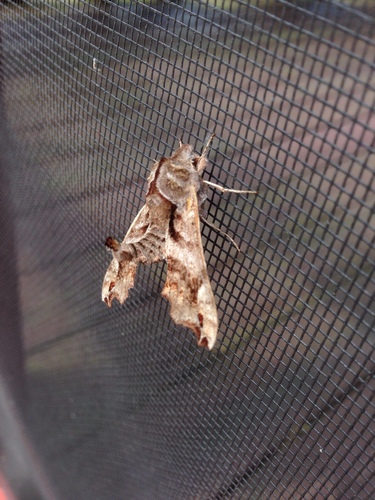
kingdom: Animalia
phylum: Arthropoda
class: Insecta
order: Lepidoptera
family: Sphingidae
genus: Deidamia
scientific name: Deidamia inscriptum
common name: Lettered sphinx
